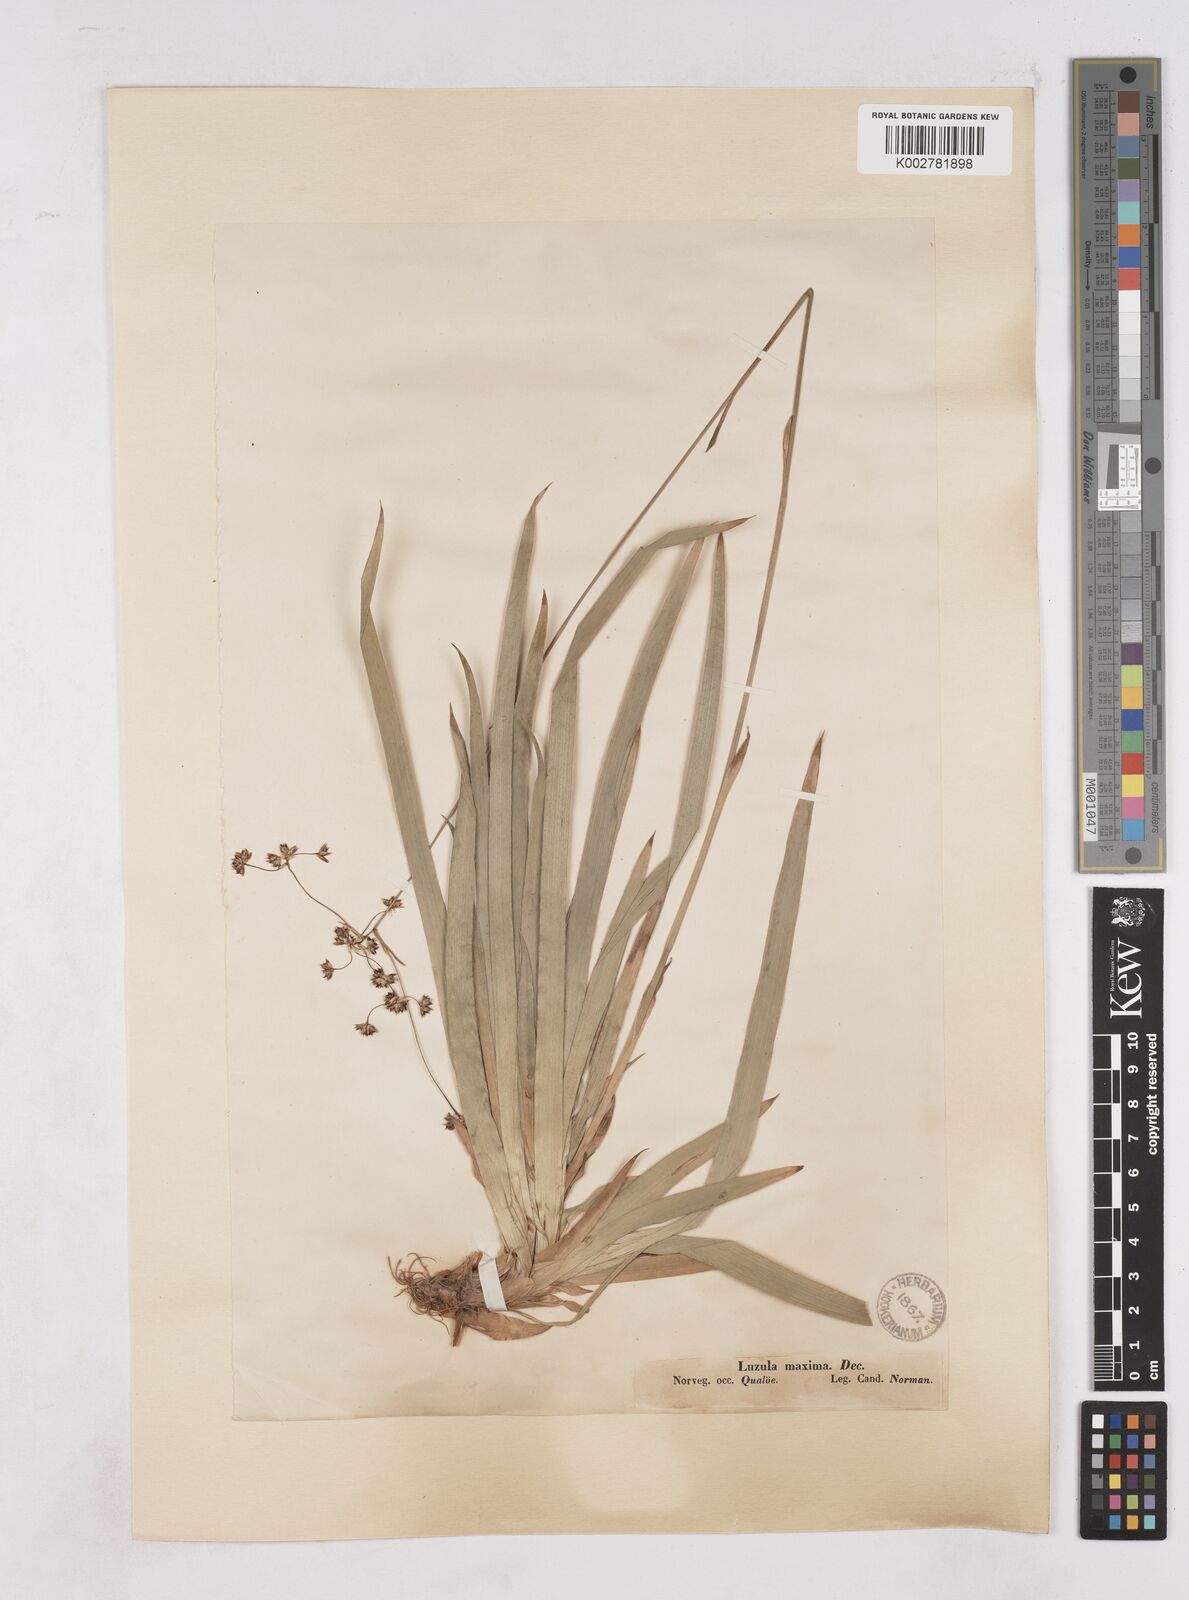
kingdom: Plantae
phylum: Tracheophyta
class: Liliopsida
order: Poales
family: Juncaceae
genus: Luzula
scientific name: Luzula sylvatica
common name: Great wood-rush
